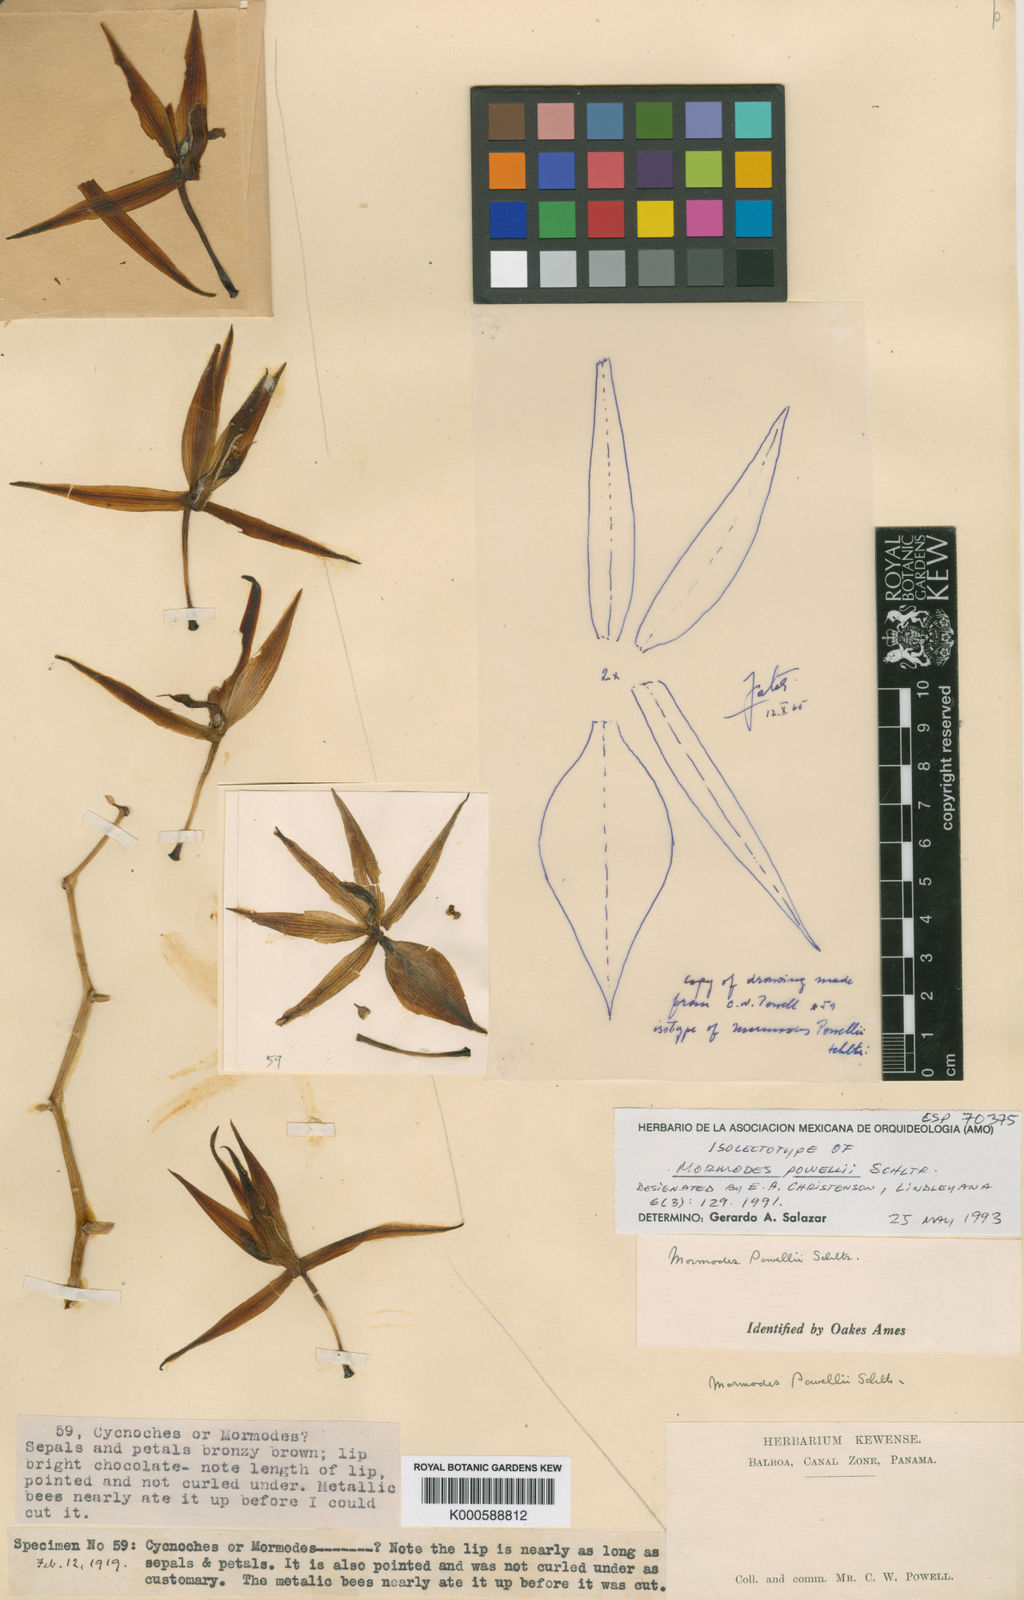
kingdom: Plantae
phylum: Tracheophyta
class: Liliopsida
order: Asparagales
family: Orchidaceae
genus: Mormodes
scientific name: Mormodes powellii
